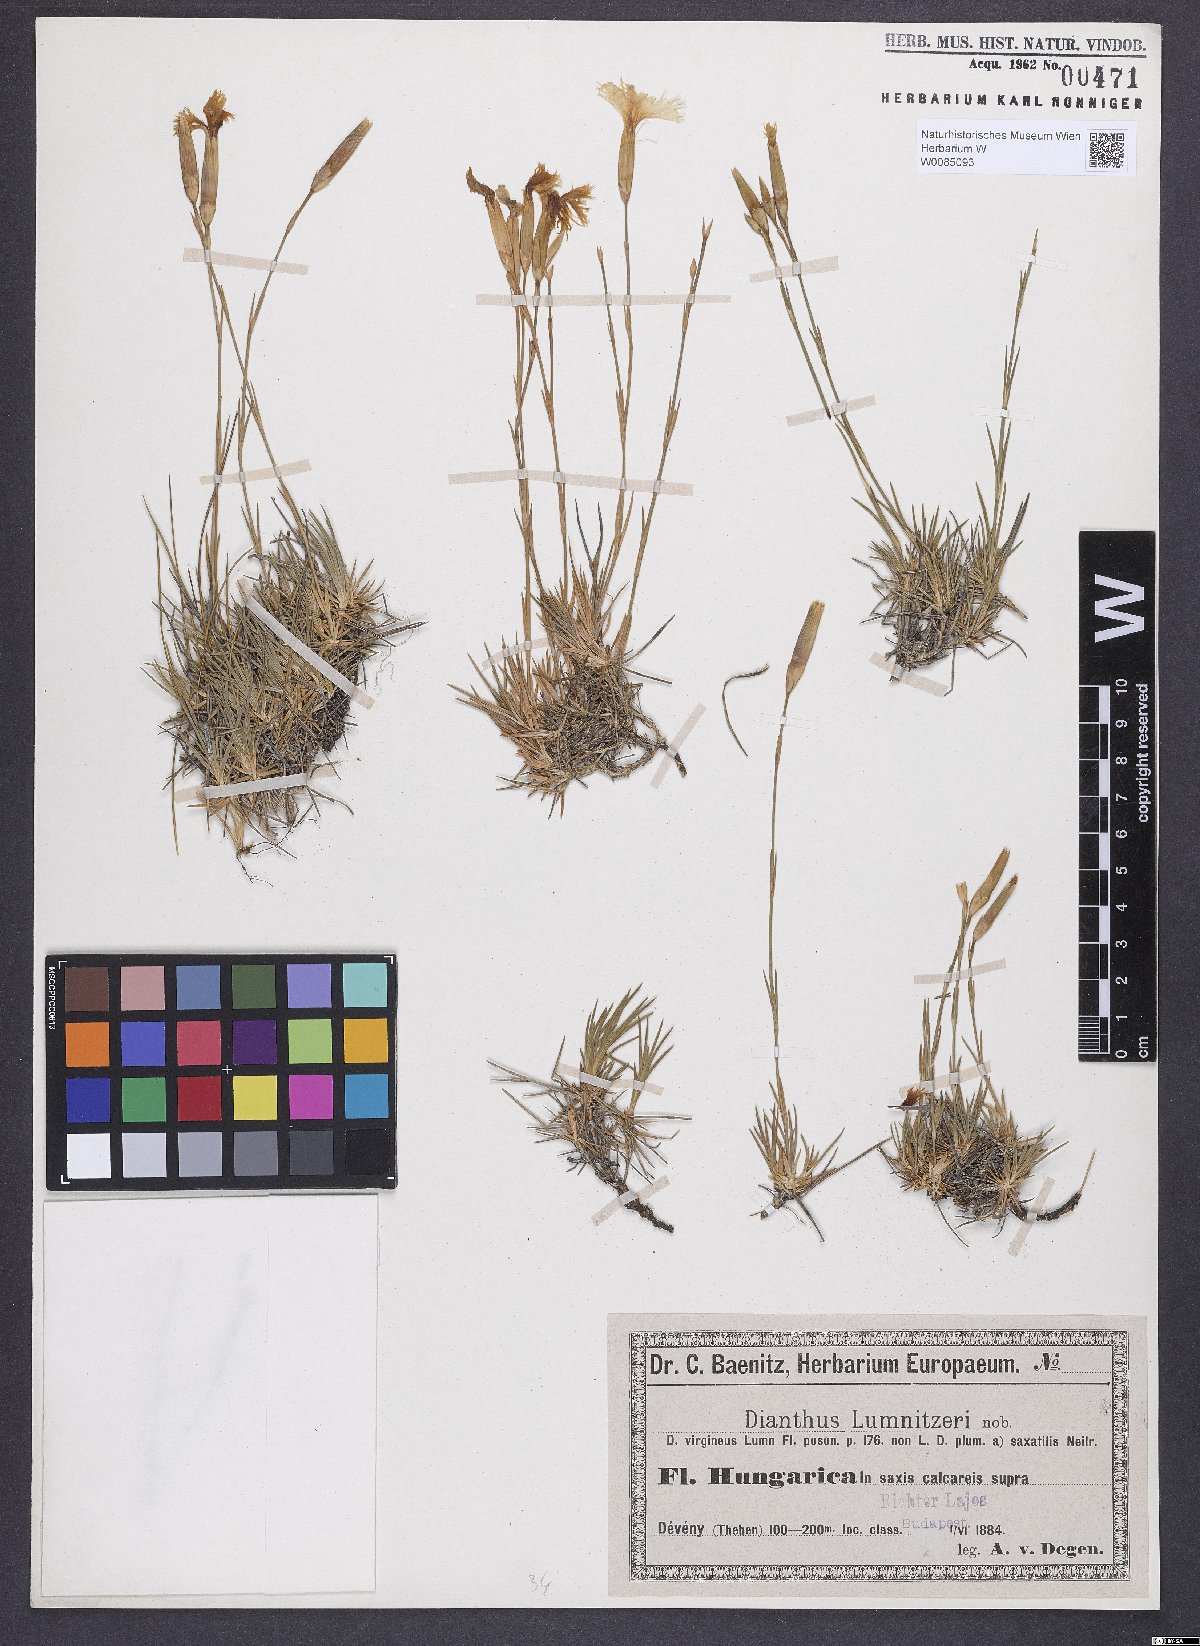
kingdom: Plantae
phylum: Tracheophyta
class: Magnoliopsida
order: Caryophyllales
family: Caryophyllaceae
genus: Dianthus
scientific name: Dianthus praecox
